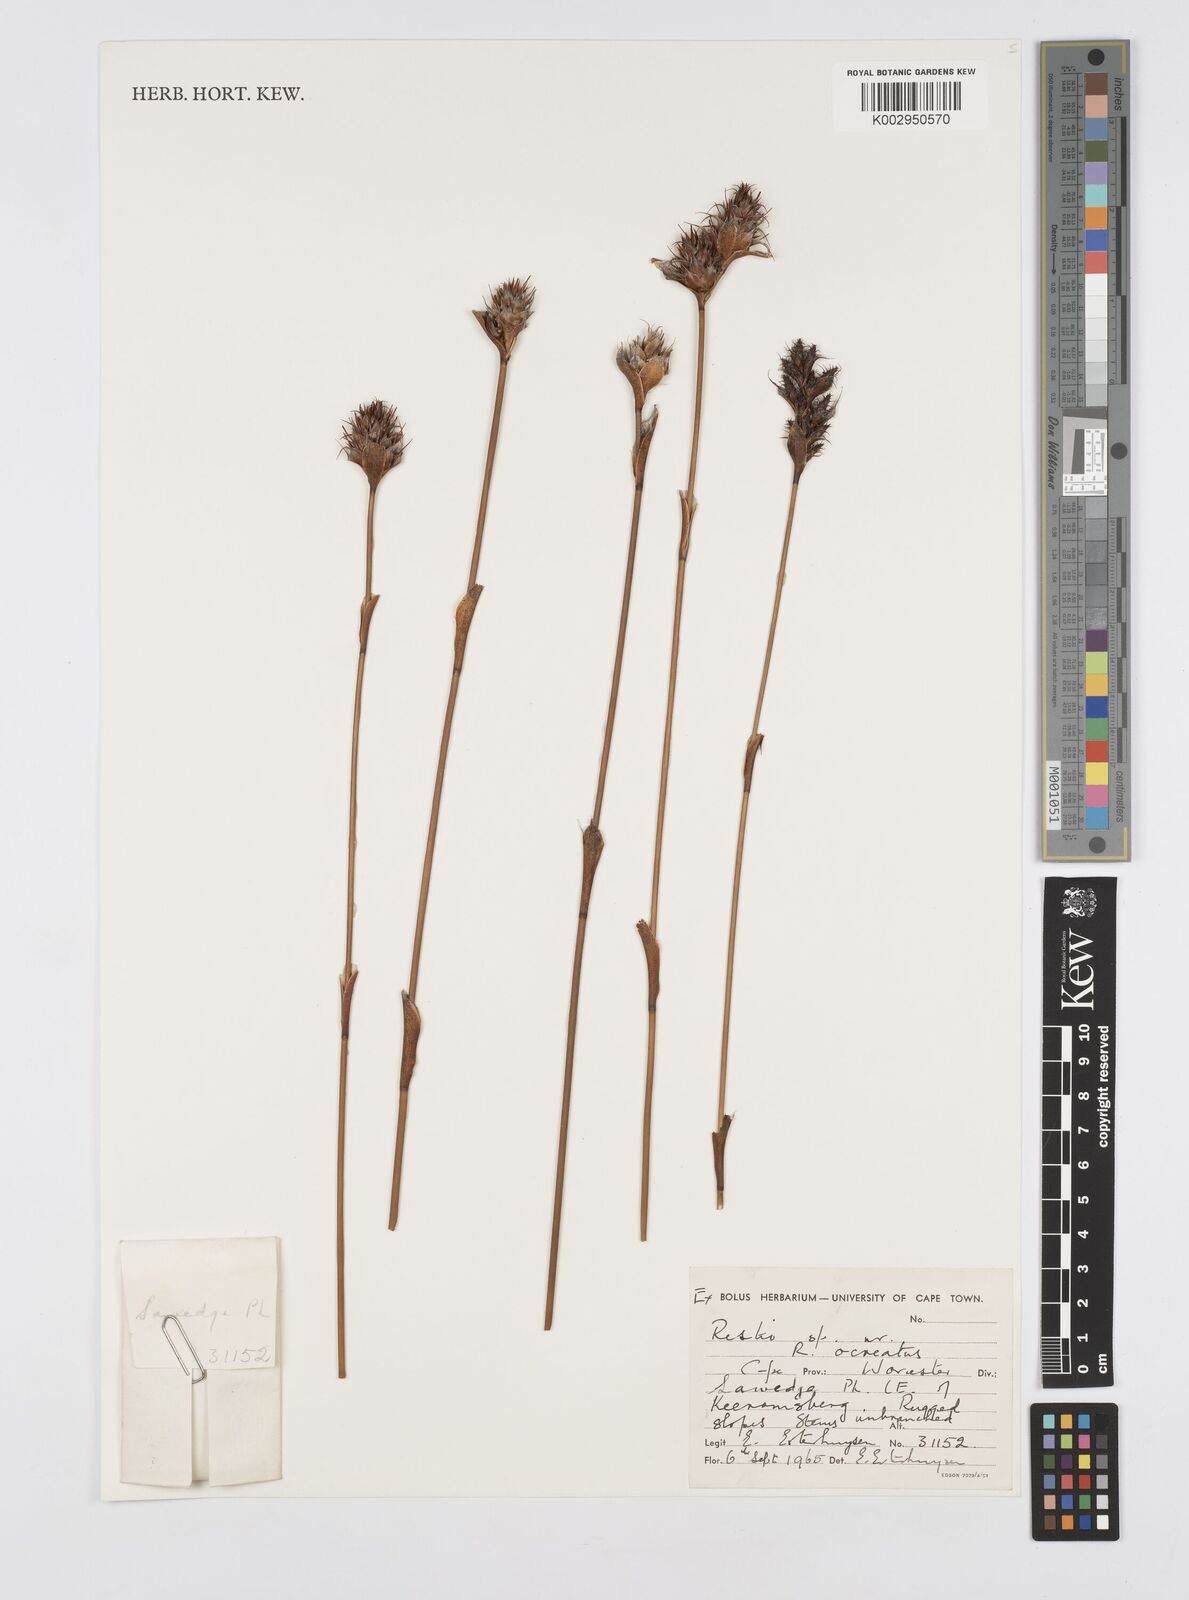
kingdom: Plantae
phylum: Tracheophyta
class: Liliopsida
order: Poales
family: Restionaceae
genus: Restio
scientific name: Restio arcuatus
